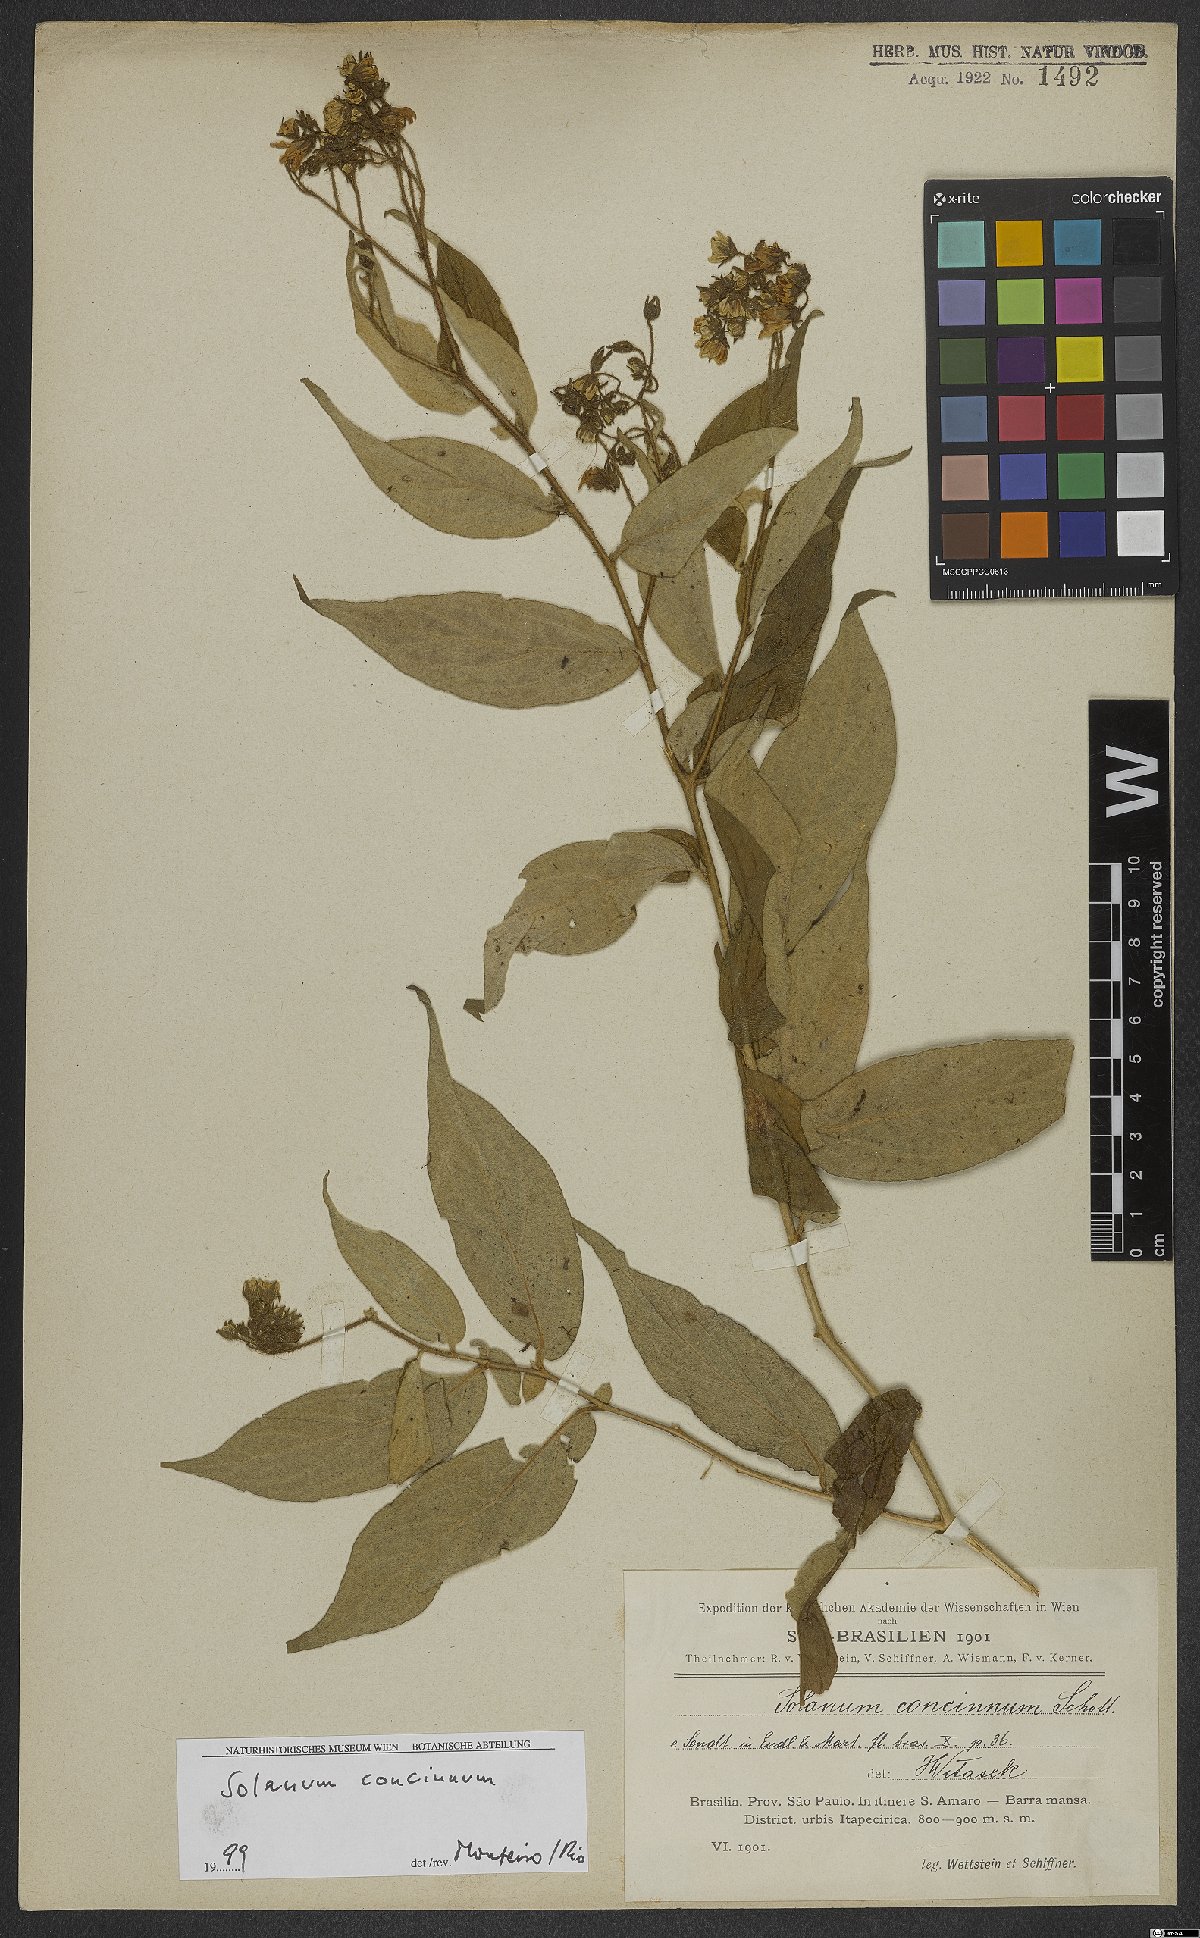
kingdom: Plantae
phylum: Tracheophyta
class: Magnoliopsida
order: Solanales
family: Solanaceae
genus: Solanum
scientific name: Solanum concinnum
